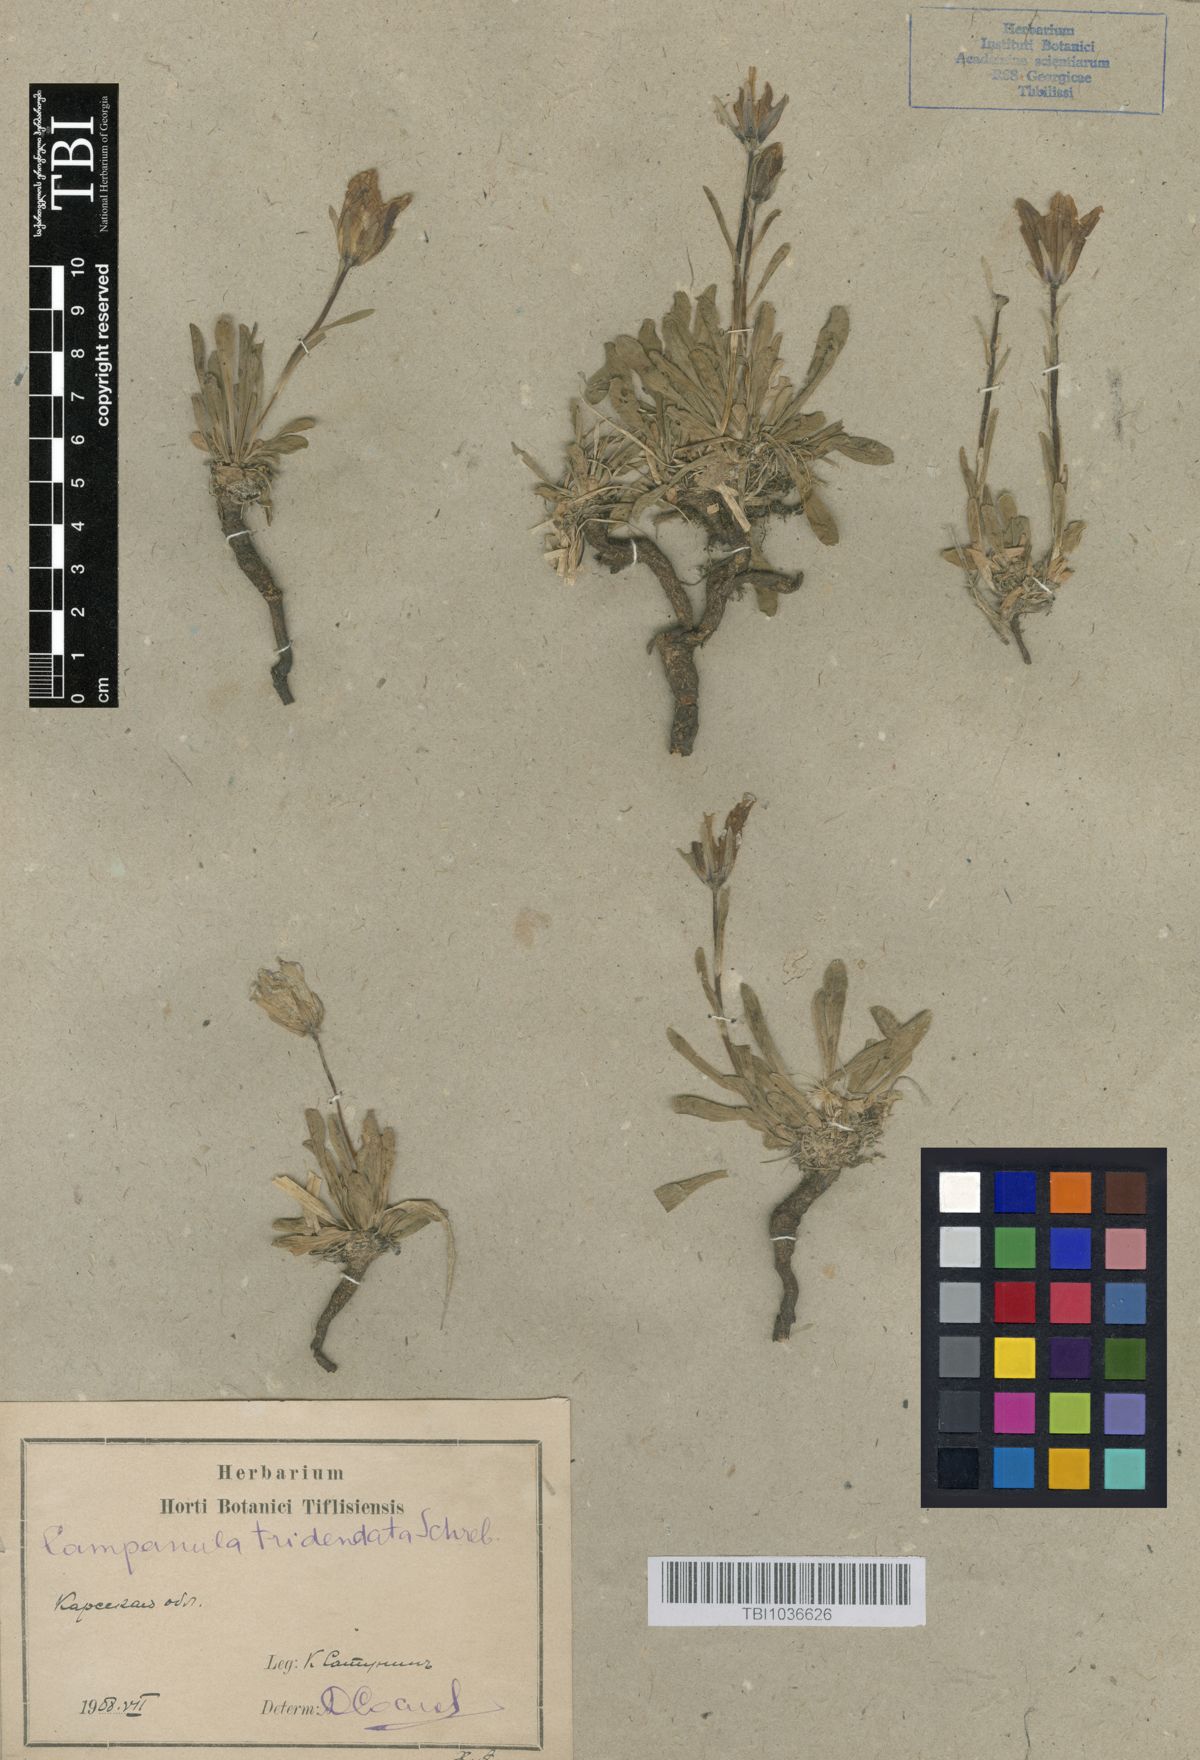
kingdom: Plantae
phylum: Tracheophyta
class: Magnoliopsida
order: Asterales
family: Campanulaceae
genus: Campanula
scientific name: Campanula tridentata
